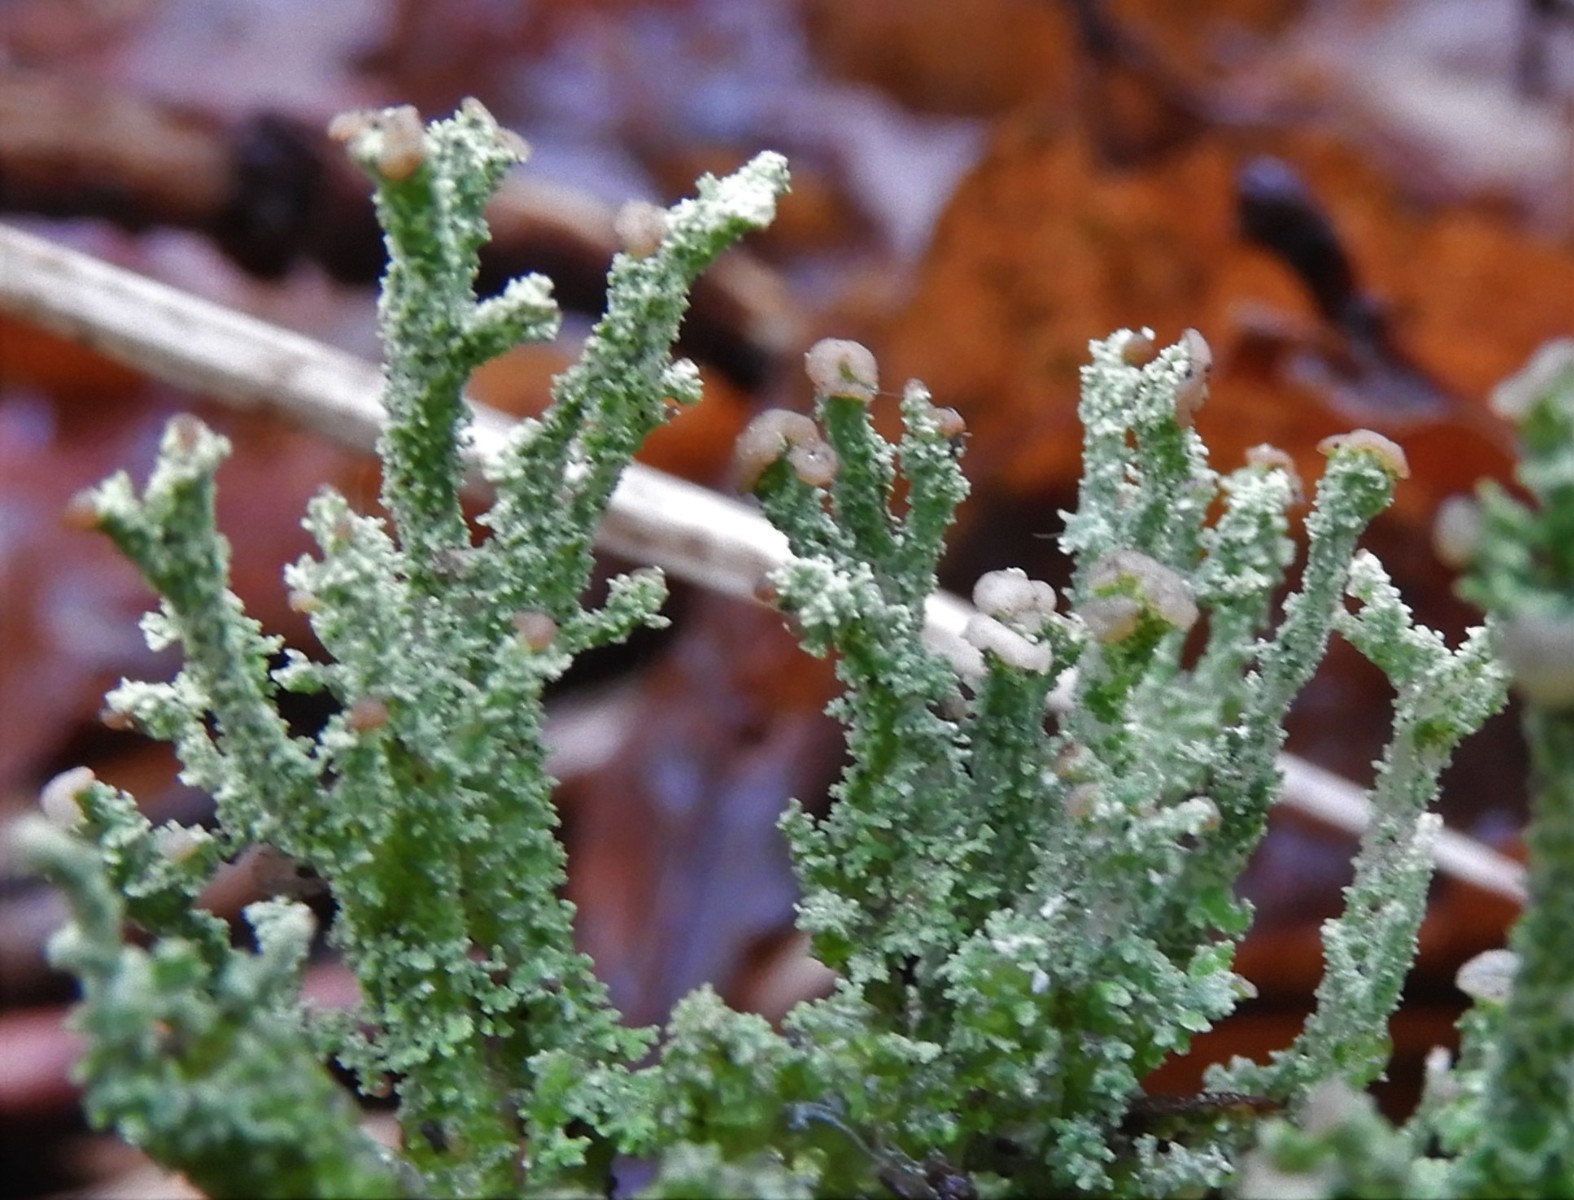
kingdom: Fungi
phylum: Ascomycota
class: Lecanoromycetes
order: Lecanorales
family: Cladoniaceae
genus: Cladonia
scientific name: Cladonia ramulosa
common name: kliddet bægerlav
